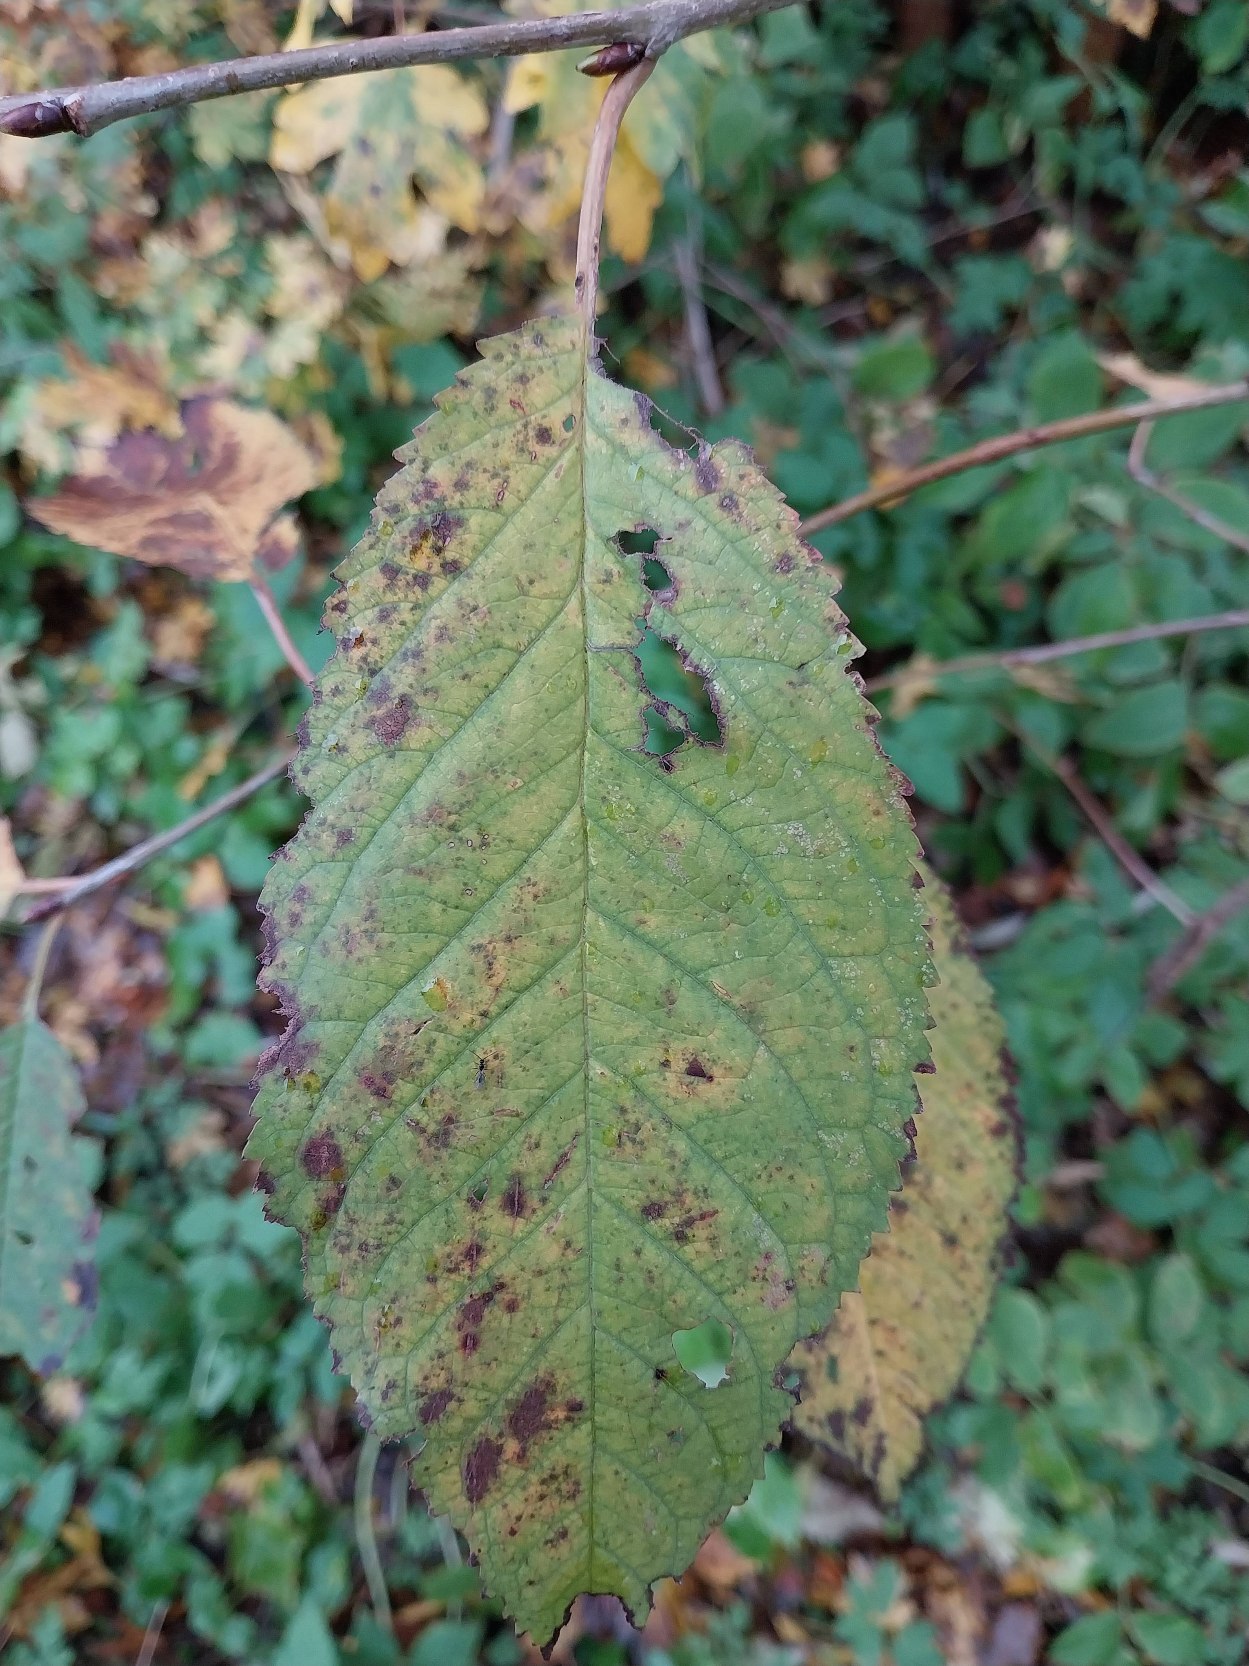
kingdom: Plantae
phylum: Tracheophyta
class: Magnoliopsida
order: Rosales
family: Rosaceae
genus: Prunus
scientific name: Prunus avium
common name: Fugle-kirsebær
